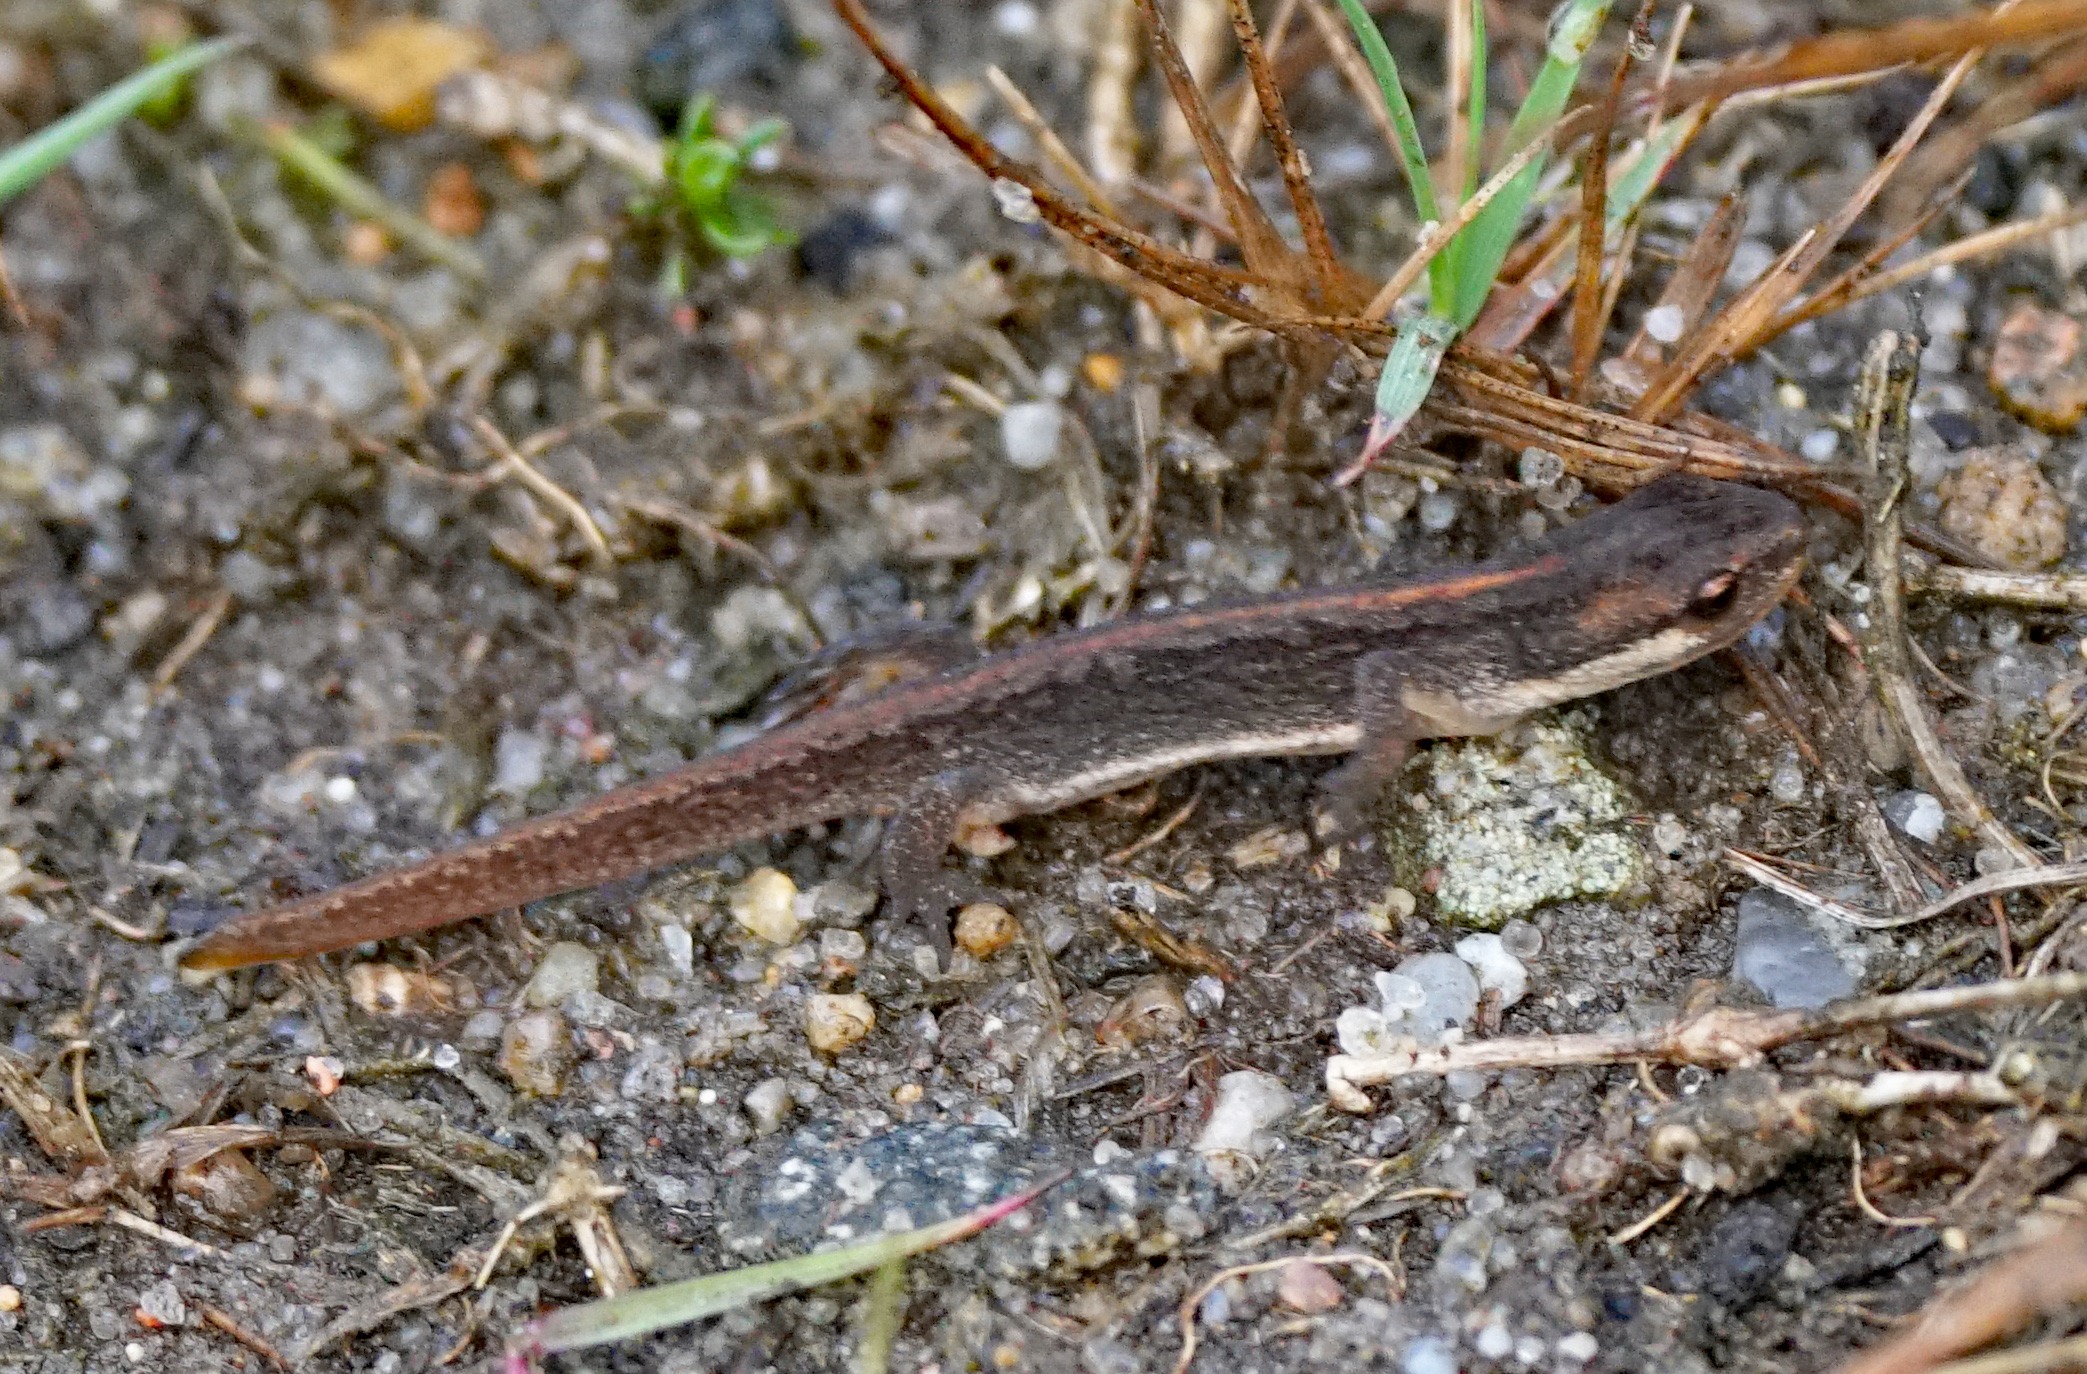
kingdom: Animalia
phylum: Chordata
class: Amphibia
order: Caudata
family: Salamandridae
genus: Lissotriton
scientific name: Lissotriton vulgaris
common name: Lille vandsalamander
